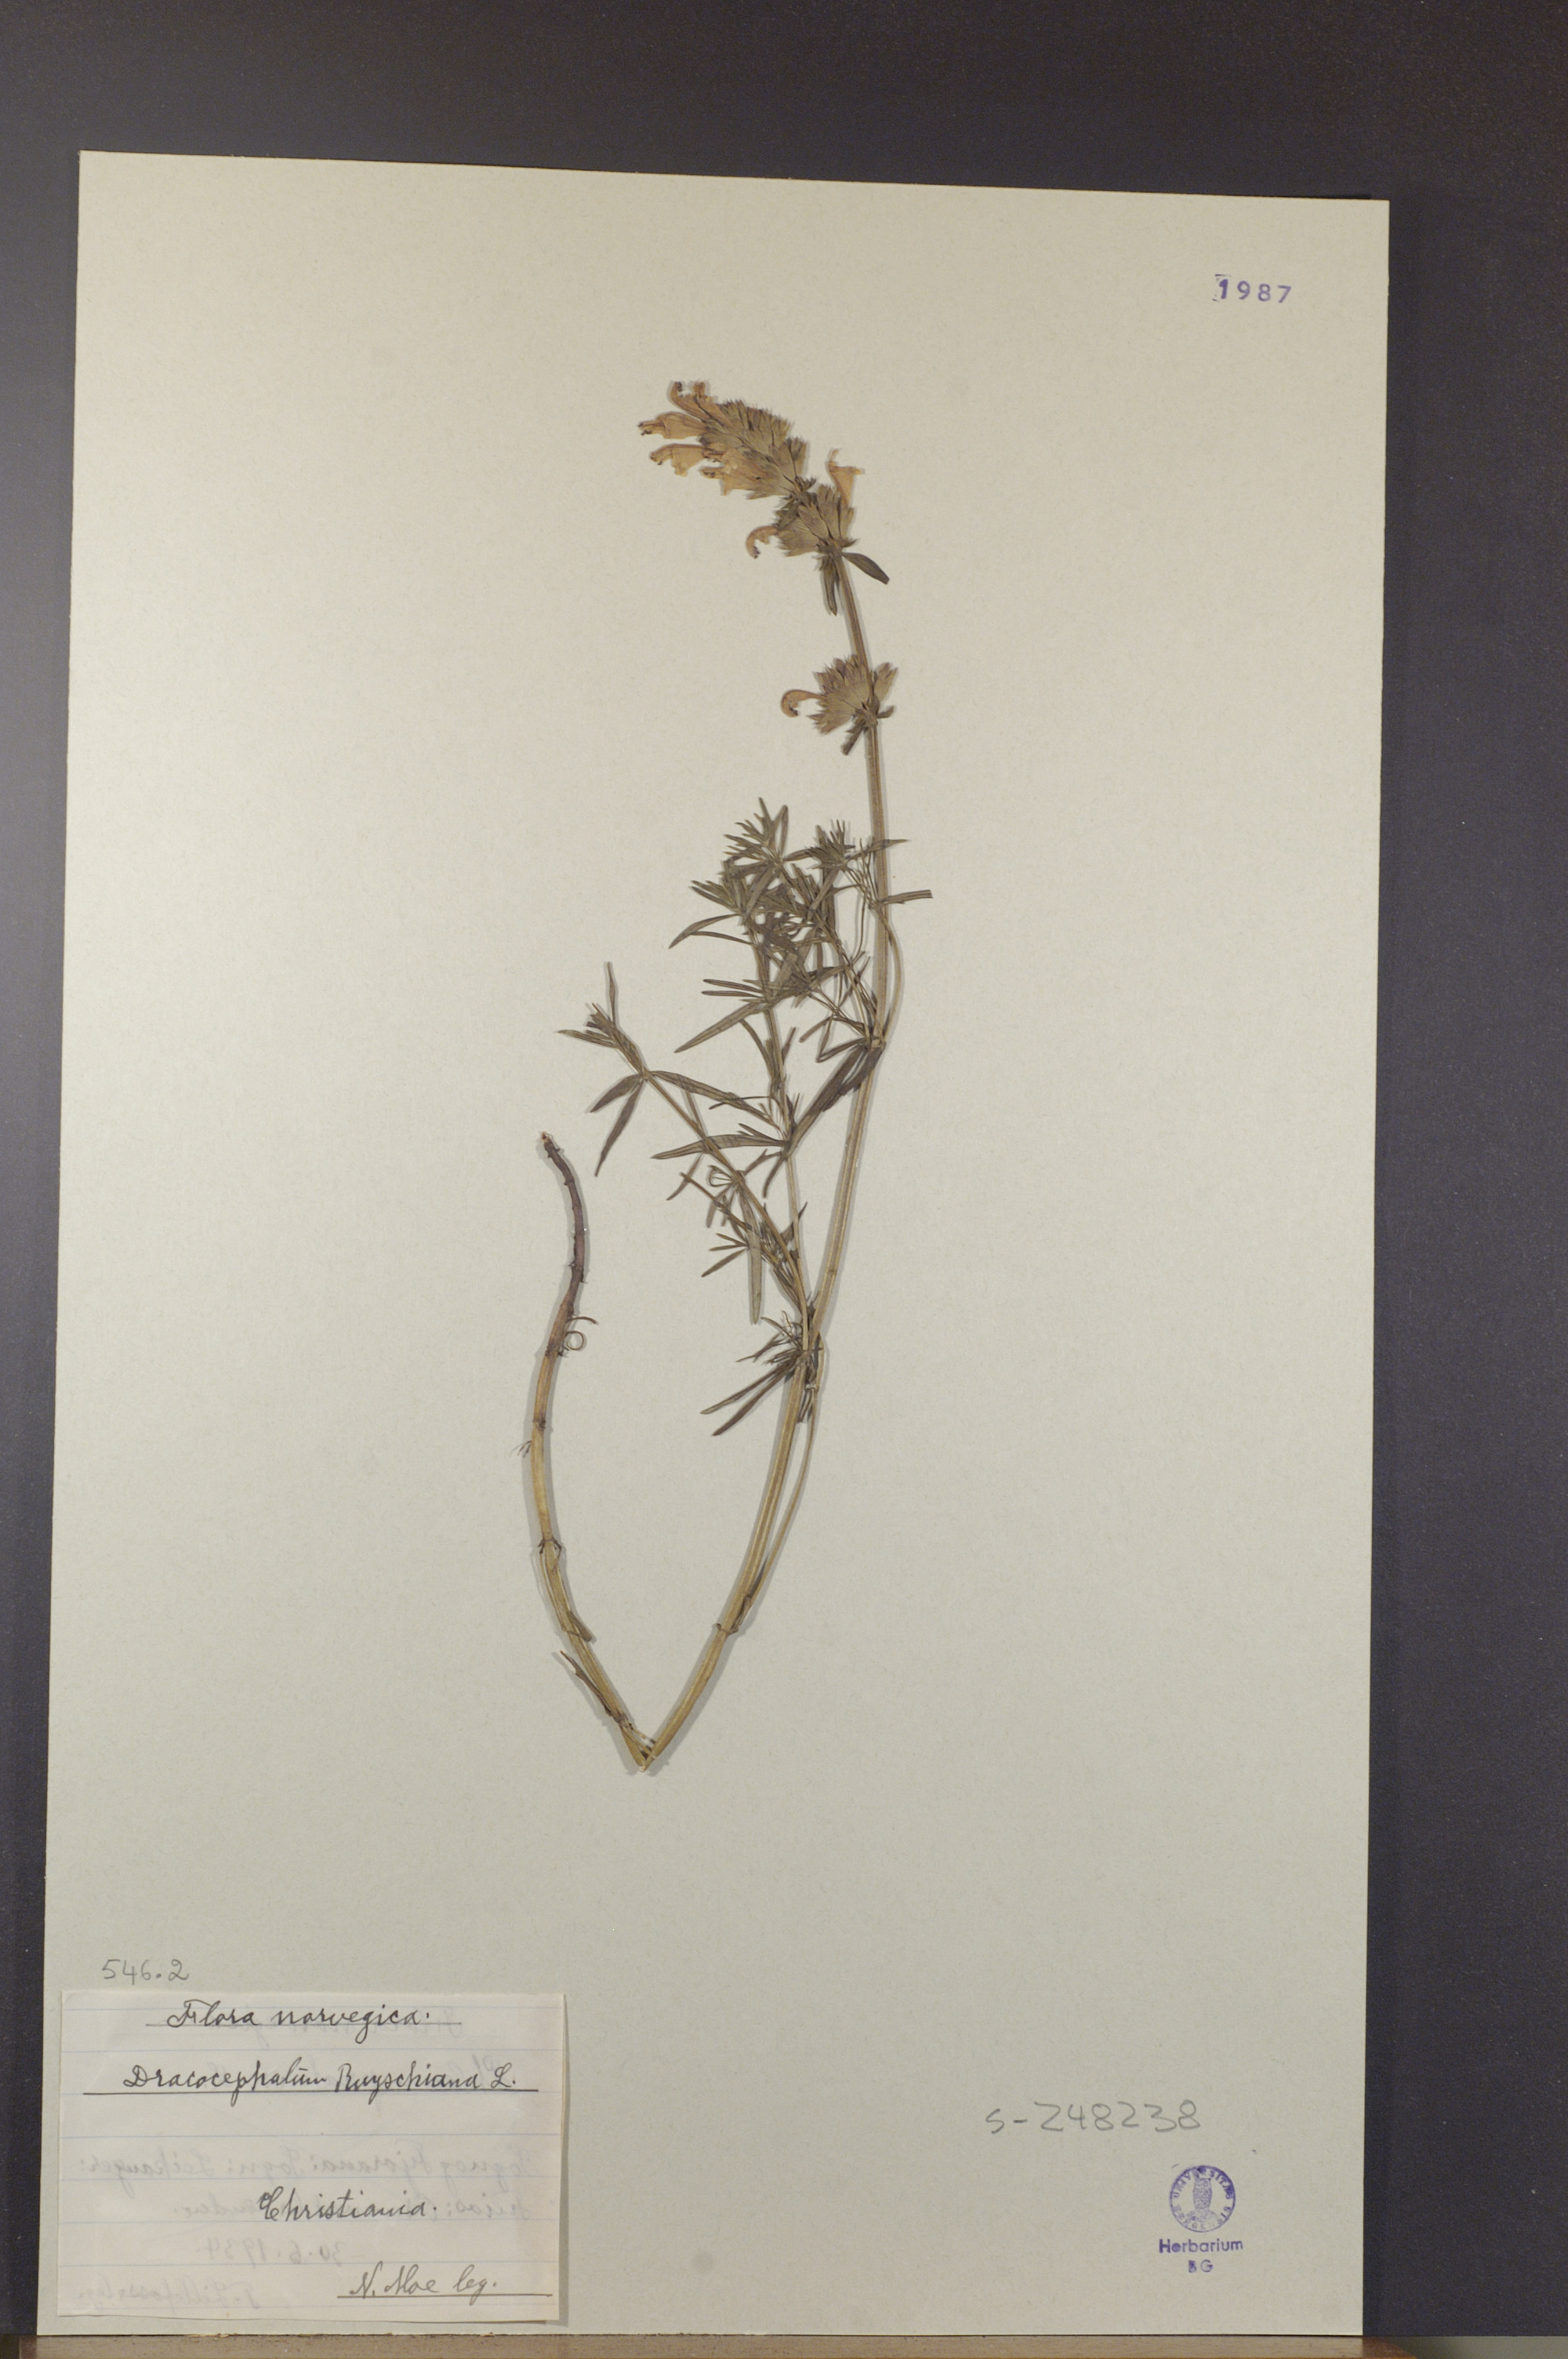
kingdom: Plantae
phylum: Tracheophyta
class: Magnoliopsida
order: Lamiales
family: Lamiaceae
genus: Dracocephalum
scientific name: Dracocephalum ruyschiana
